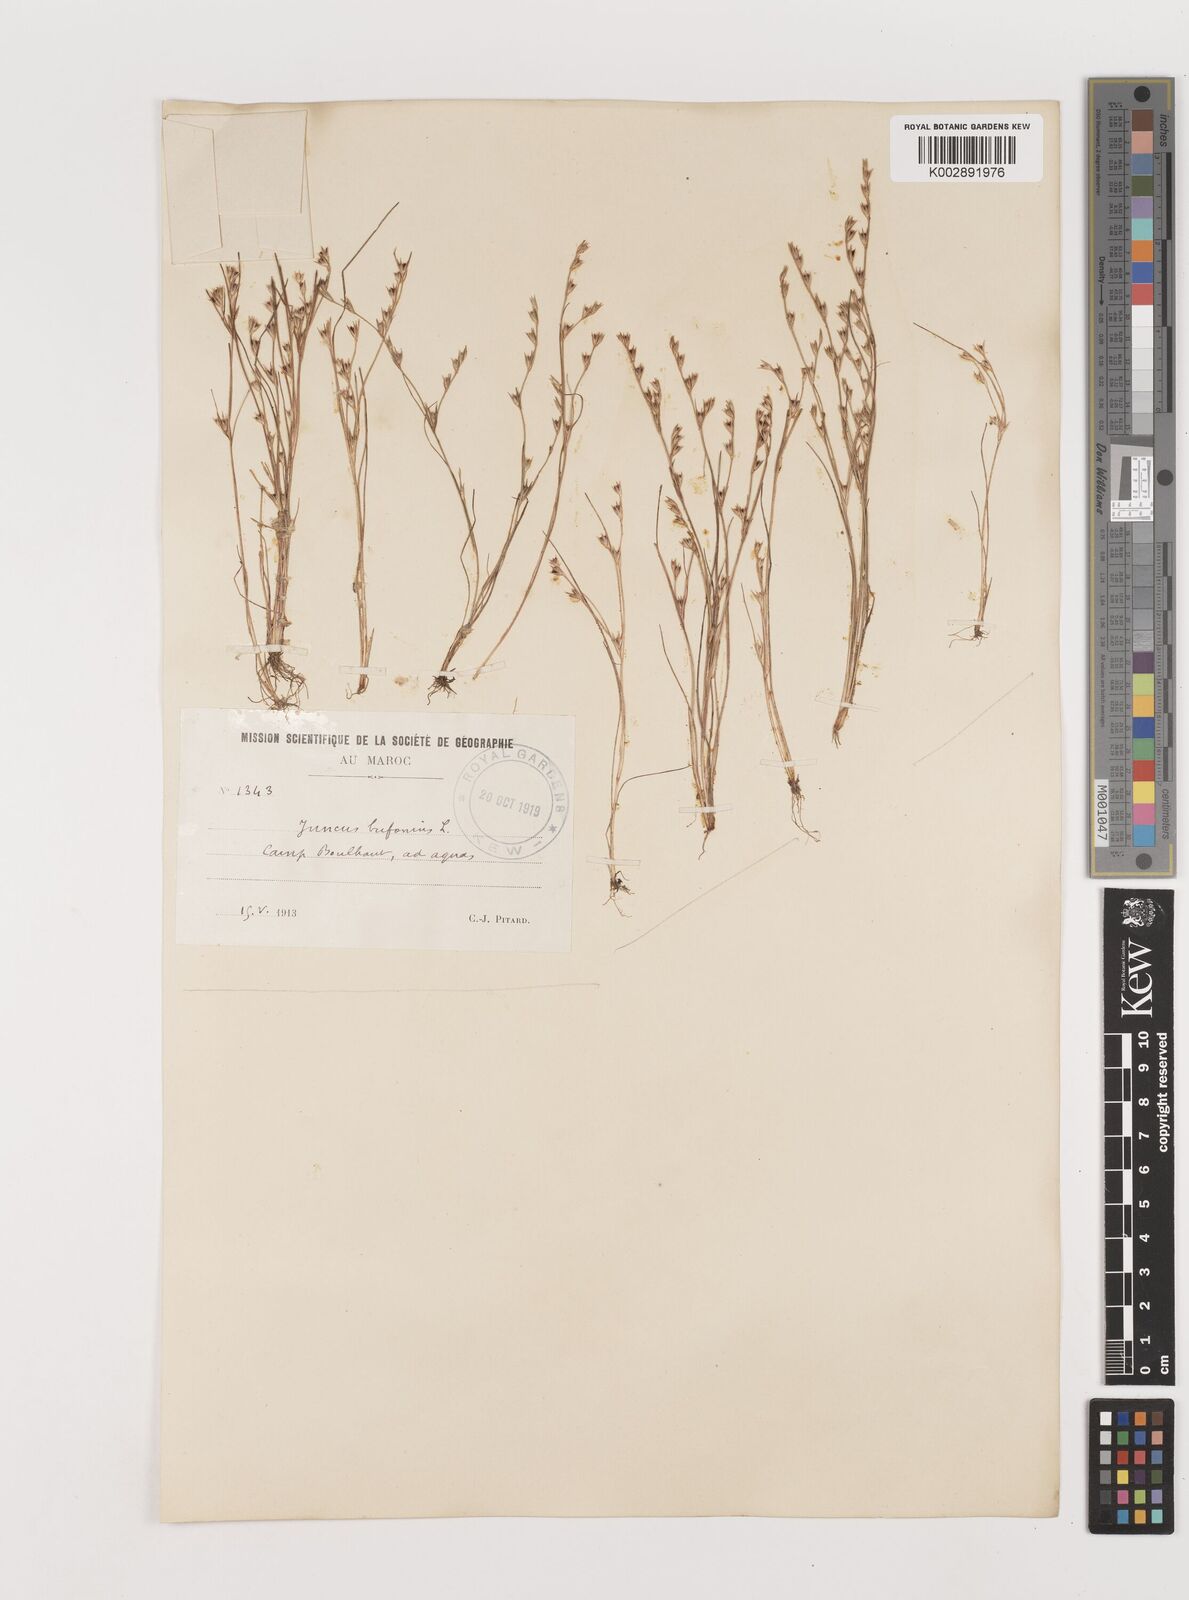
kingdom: Plantae
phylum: Tracheophyta
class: Liliopsida
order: Poales
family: Juncaceae
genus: Juncus
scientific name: Juncus bufonius
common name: Toad rush
